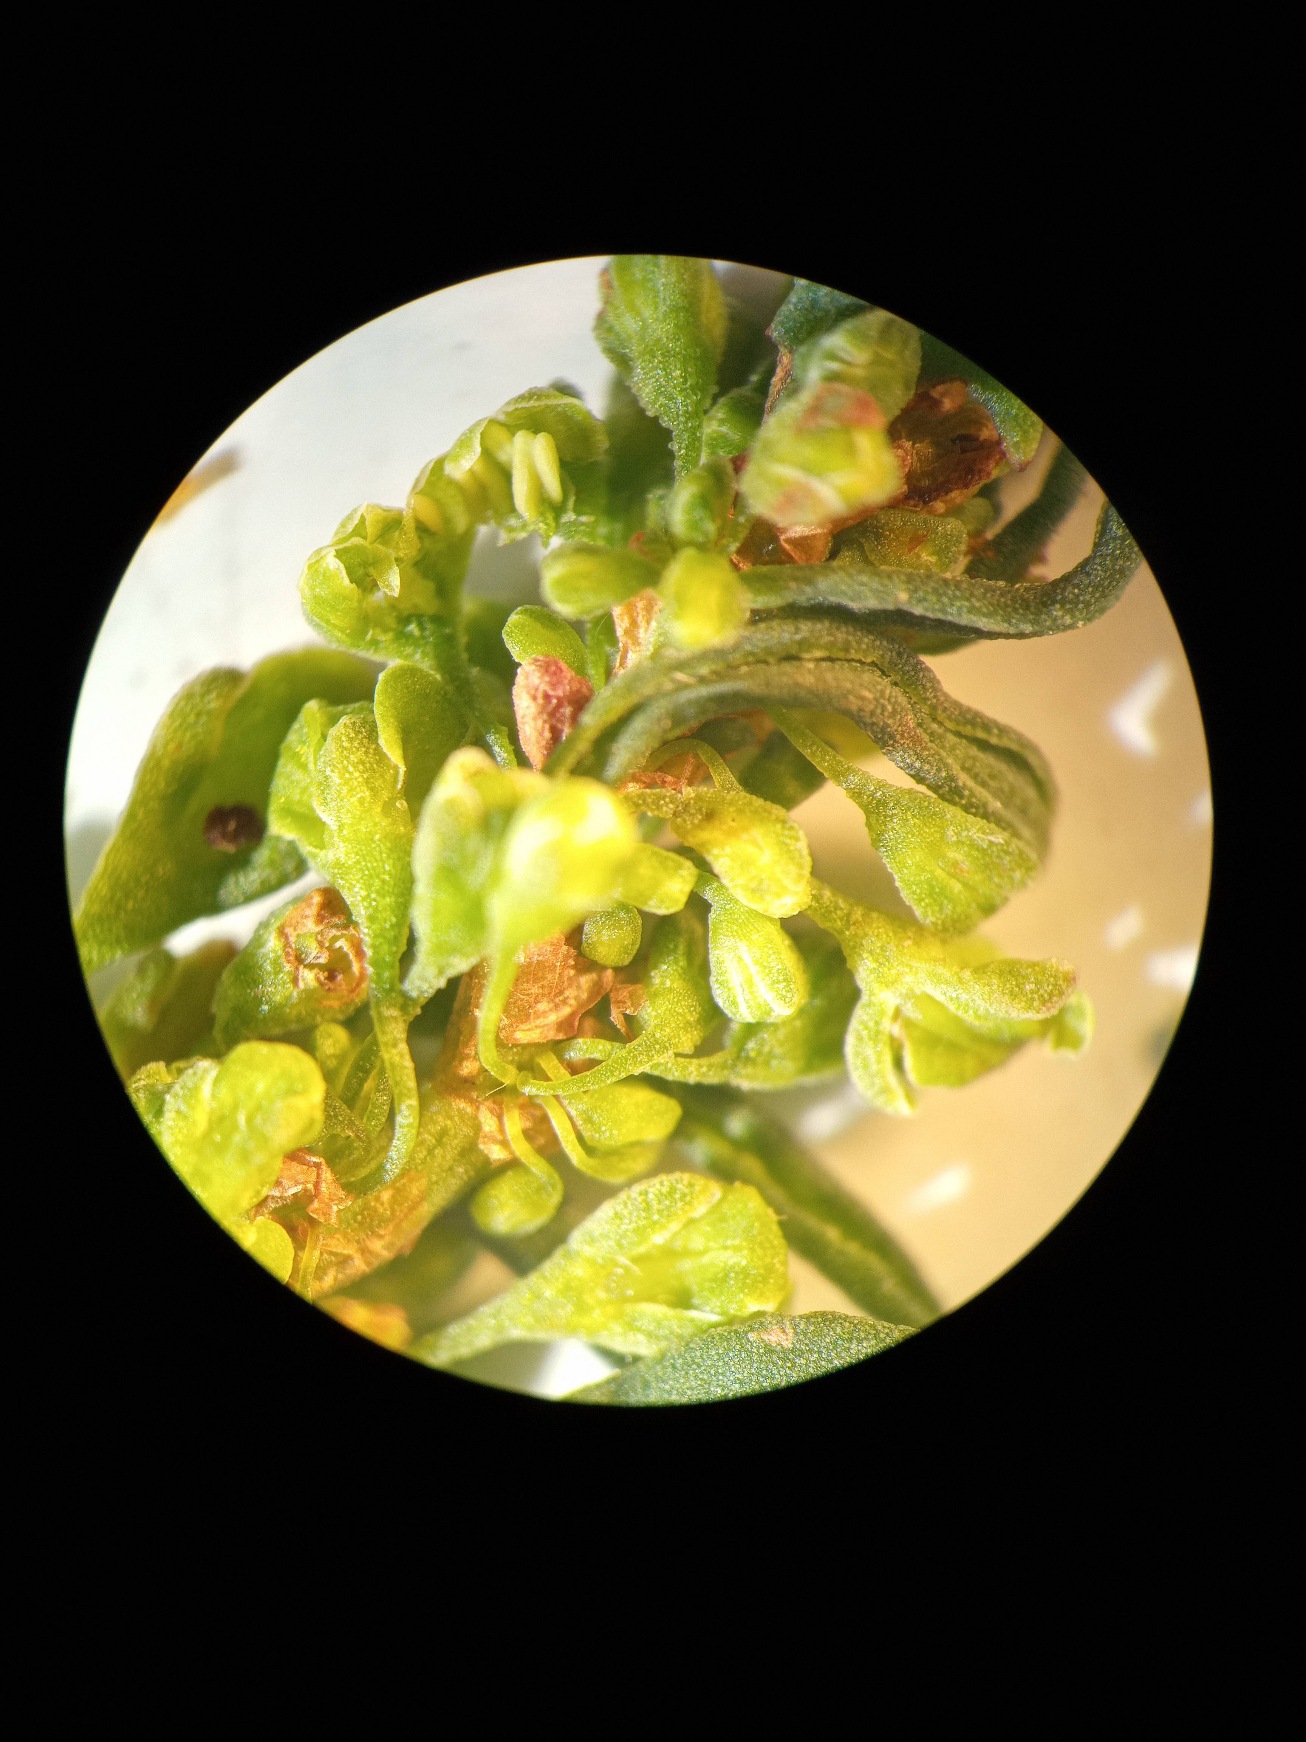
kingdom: Plantae
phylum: Tracheophyta
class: Magnoliopsida
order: Caryophyllales
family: Polygonaceae
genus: Rumex
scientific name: Rumex
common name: Skræppeslægten
